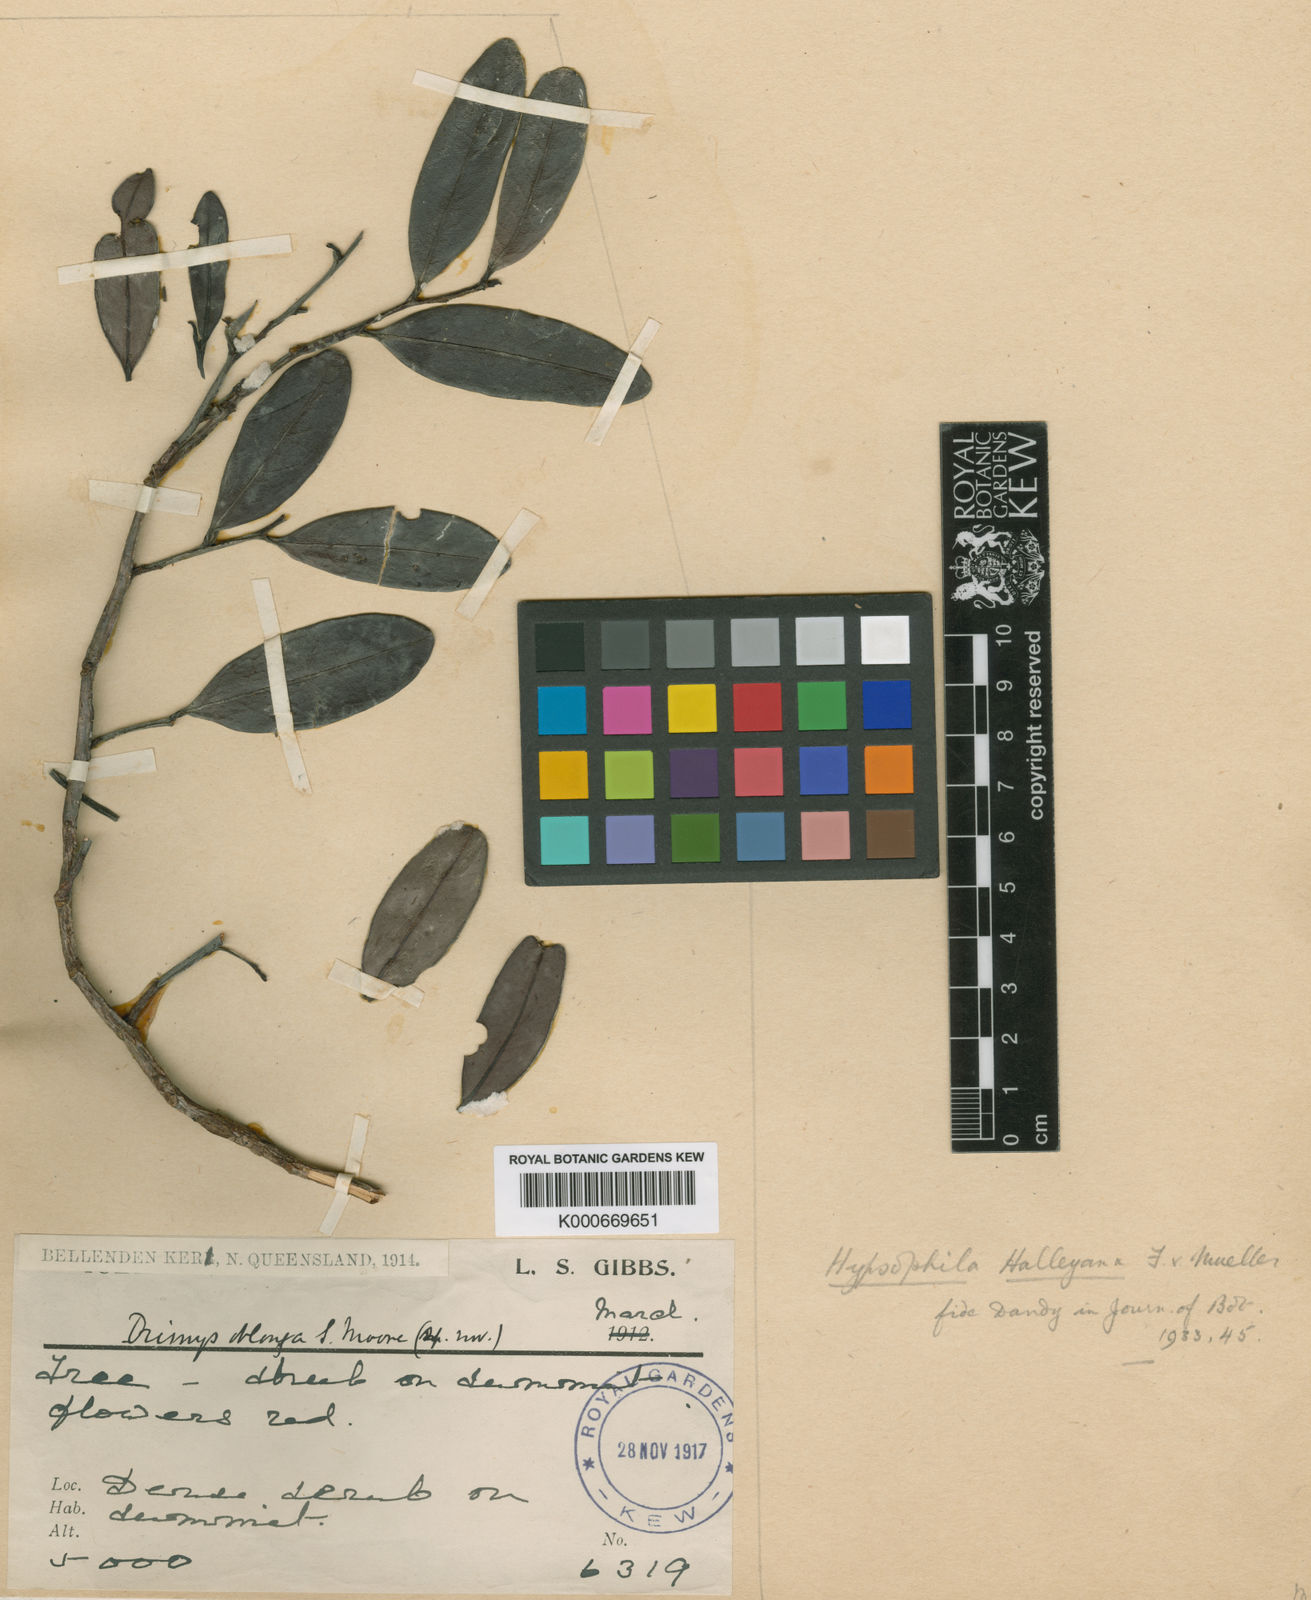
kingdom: Plantae
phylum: Tracheophyta
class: Magnoliopsida
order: Celastrales
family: Celastraceae
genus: Hypsophila
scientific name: Hypsophila halleyana
